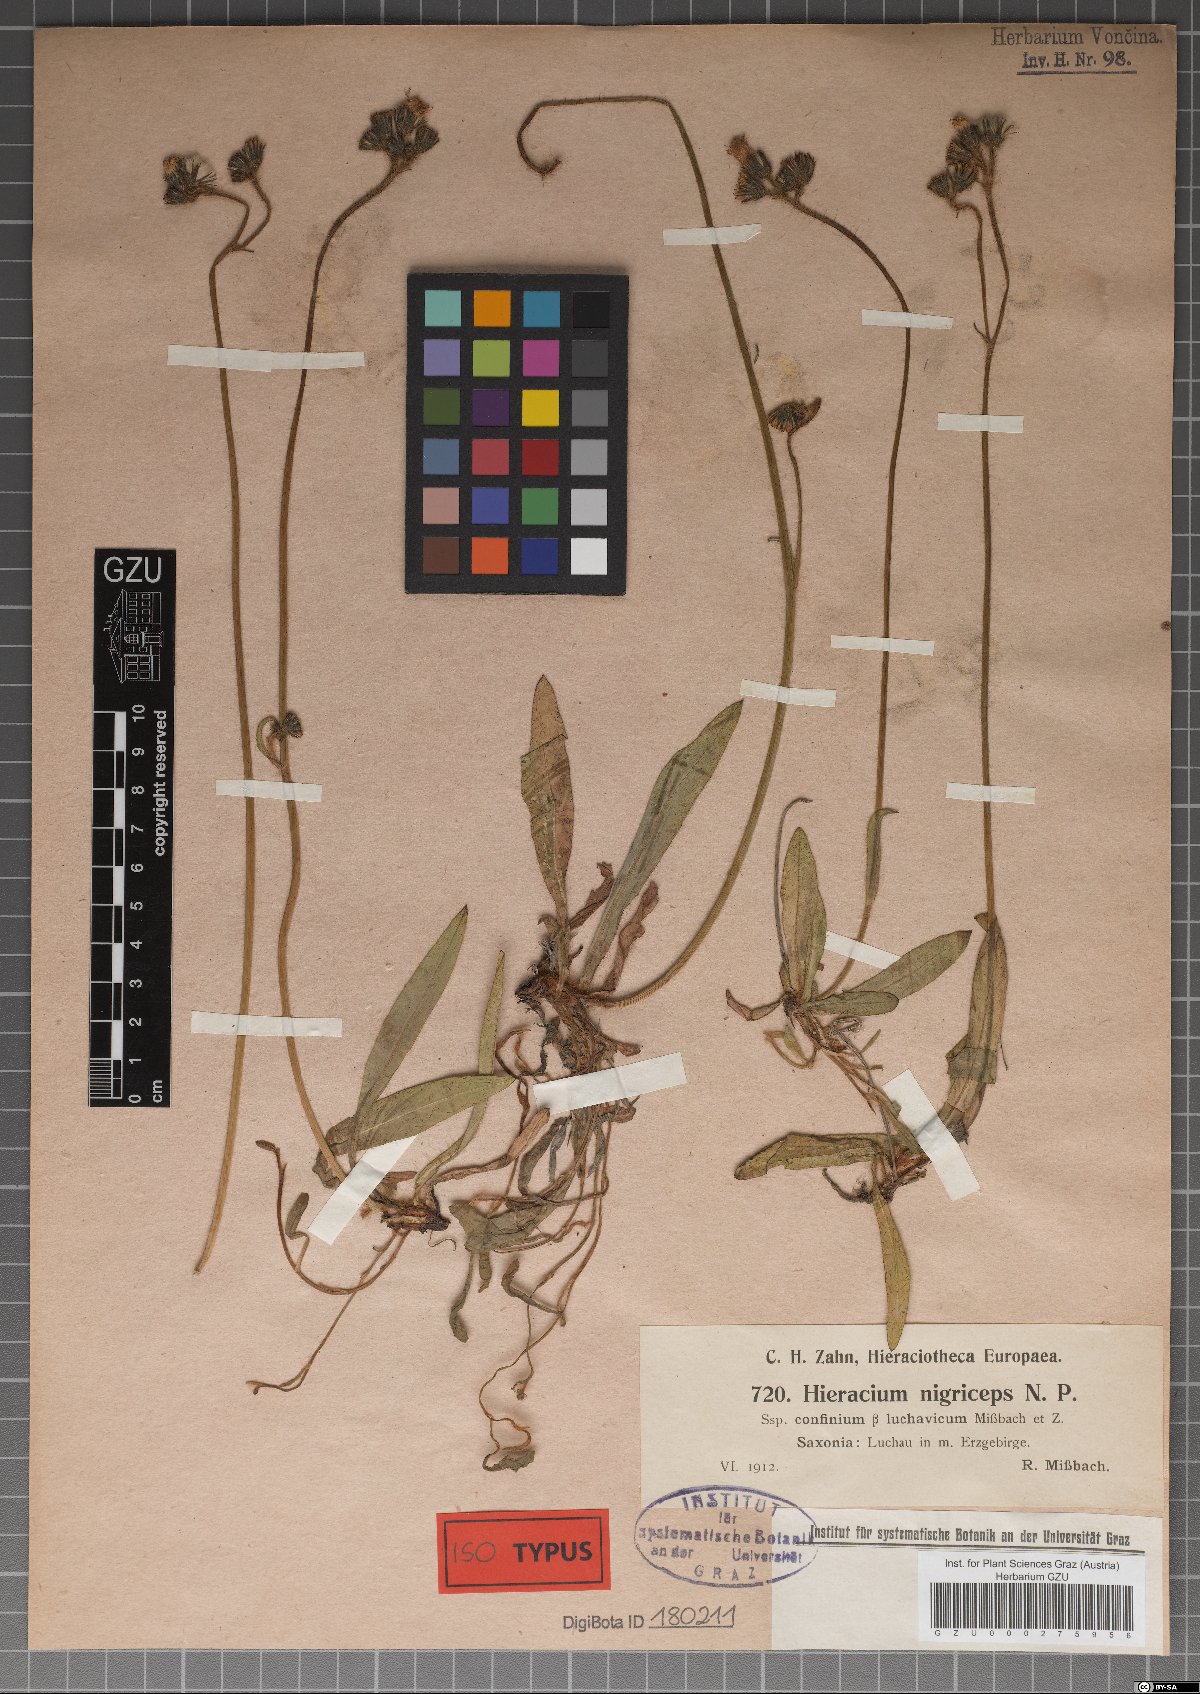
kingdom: Plantae
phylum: Tracheophyta
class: Magnoliopsida
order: Asterales
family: Asteraceae
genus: Hieracium
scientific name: Hieracium nigriceps
